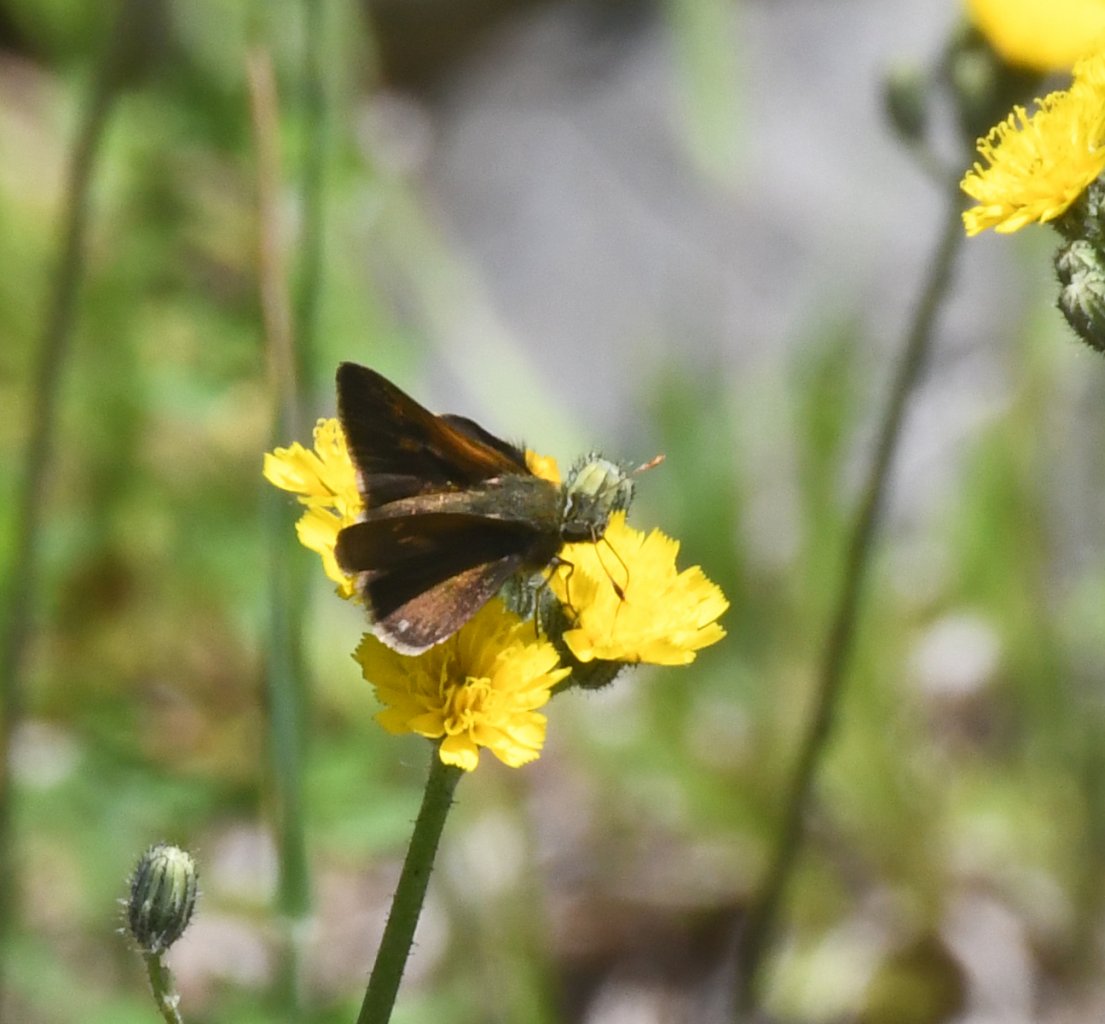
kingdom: Animalia
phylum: Arthropoda
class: Insecta
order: Lepidoptera
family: Hesperiidae
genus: Polites
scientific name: Polites themistocles
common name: Tawny-edged Skipper
